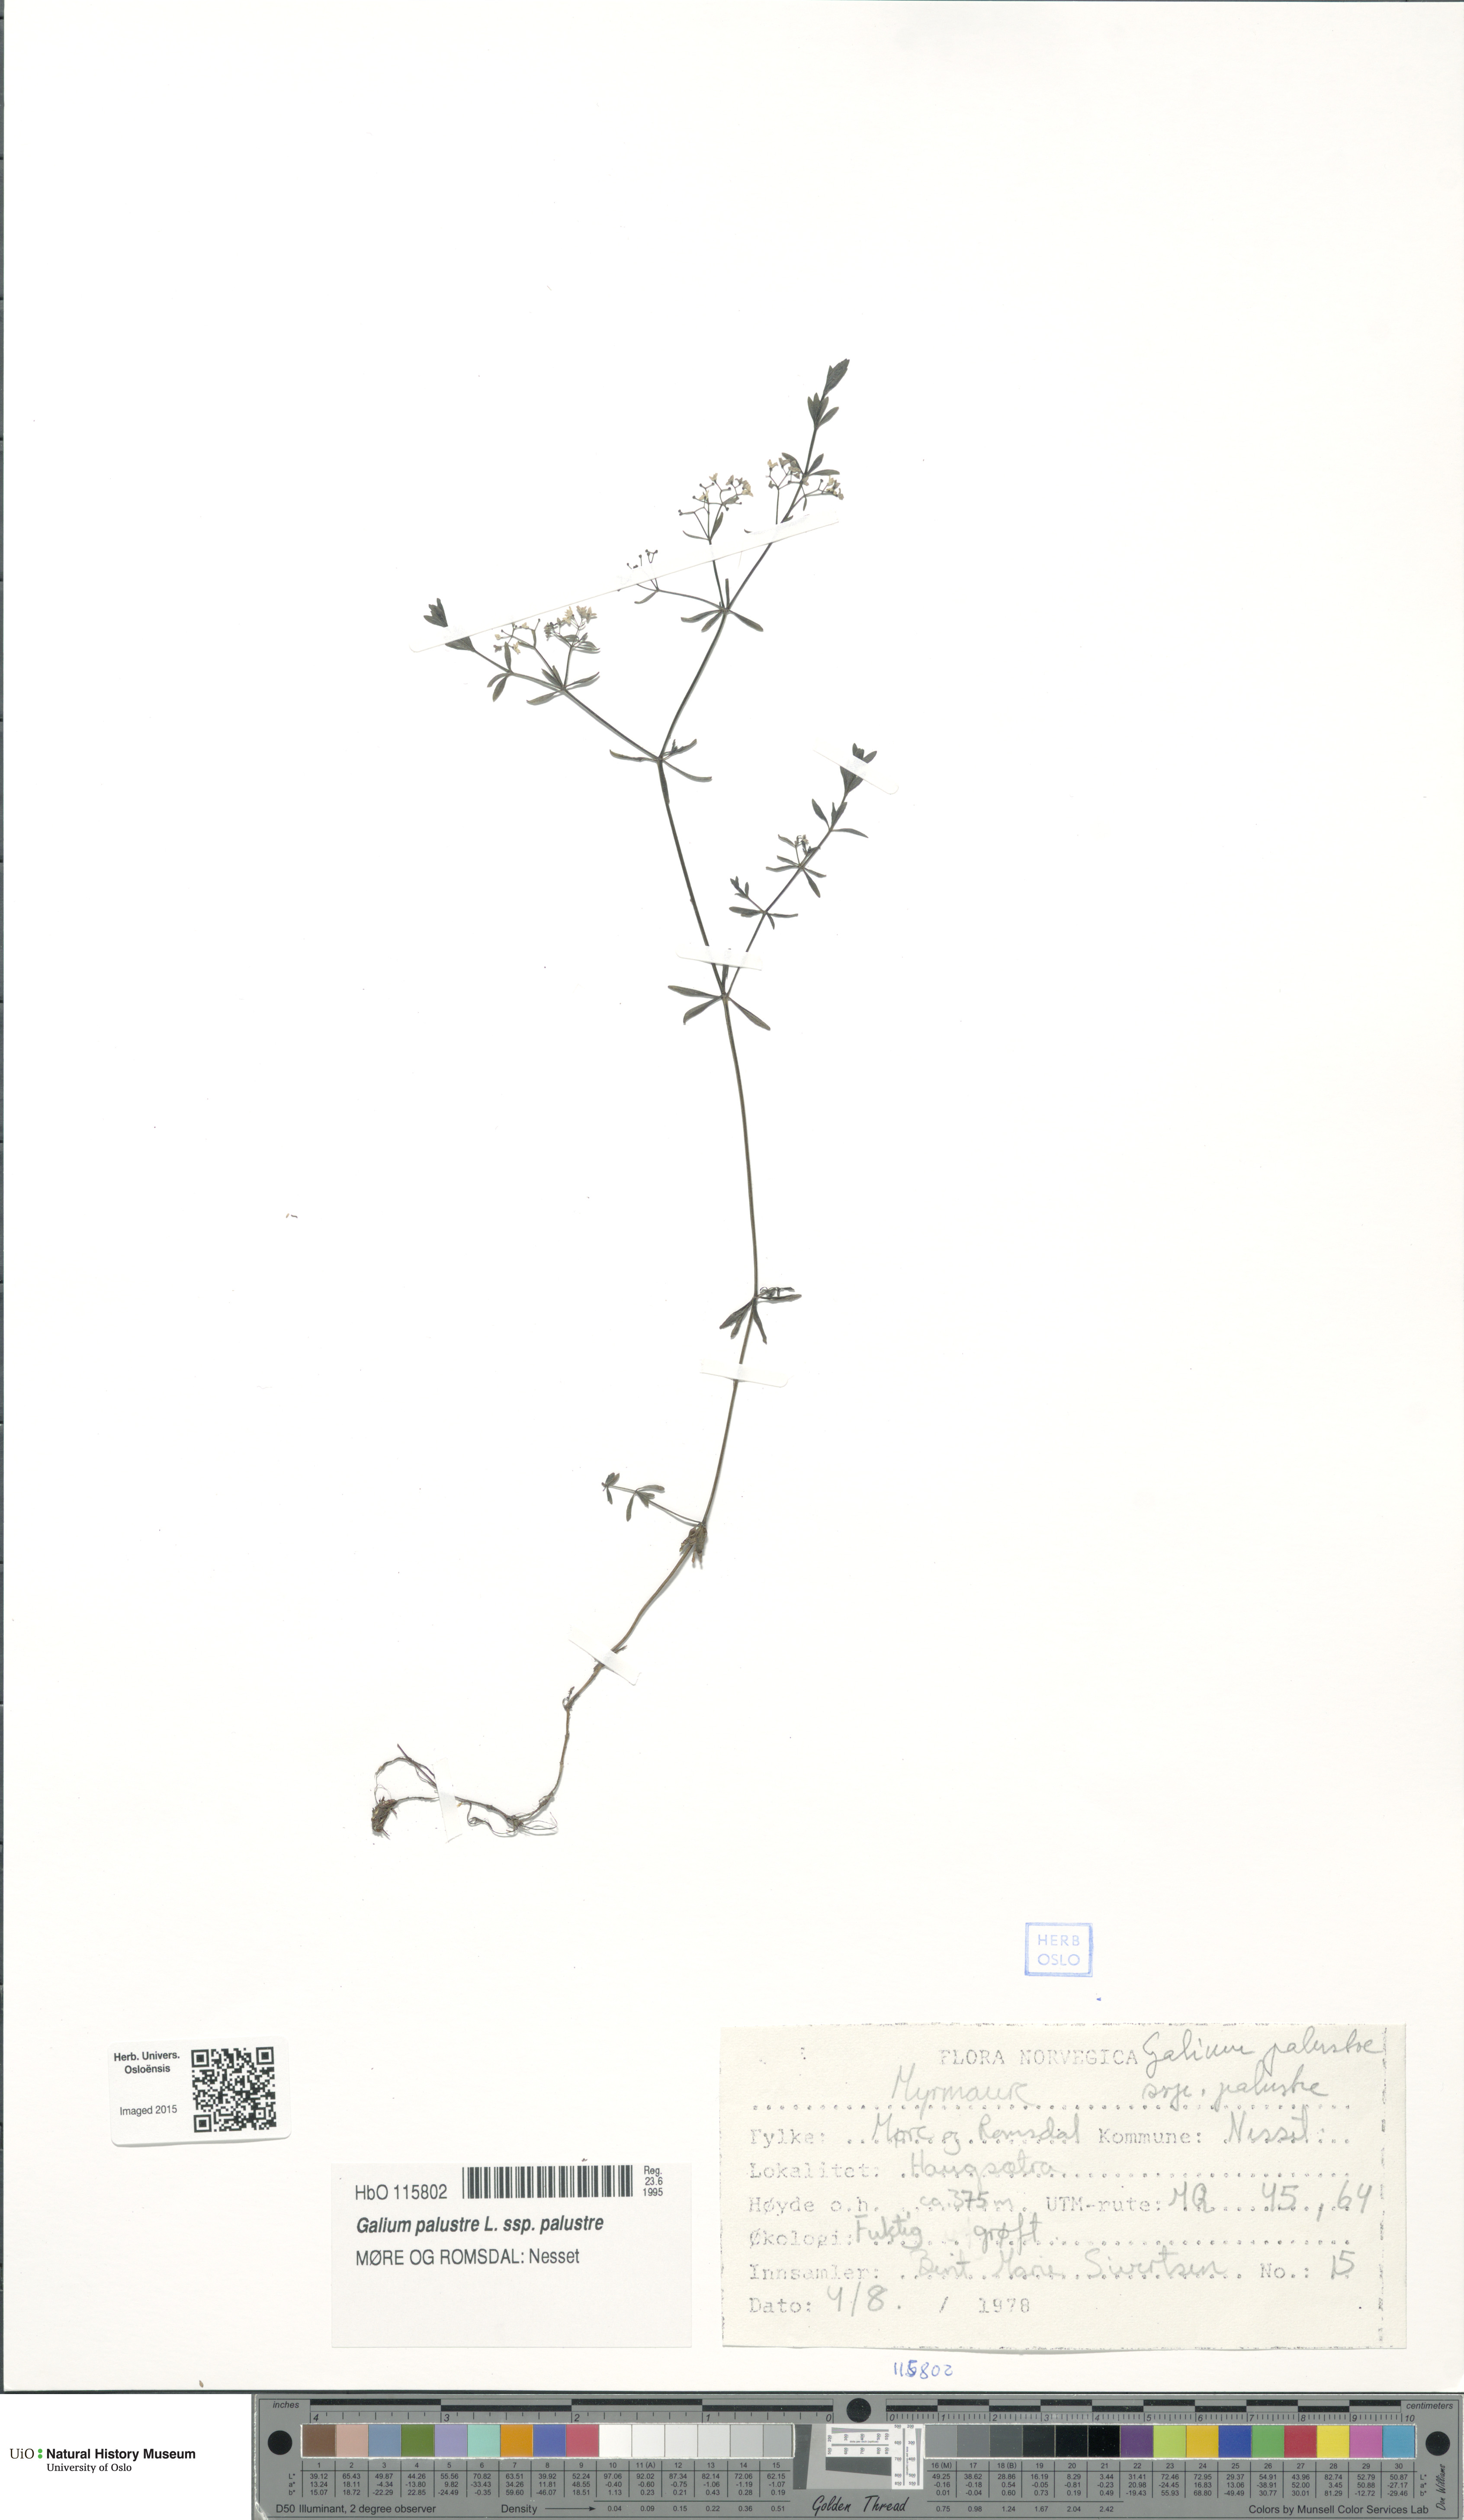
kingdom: Plantae
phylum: Tracheophyta
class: Magnoliopsida
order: Gentianales
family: Rubiaceae
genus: Galium
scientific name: Galium palustre
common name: Common marsh-bedstraw
